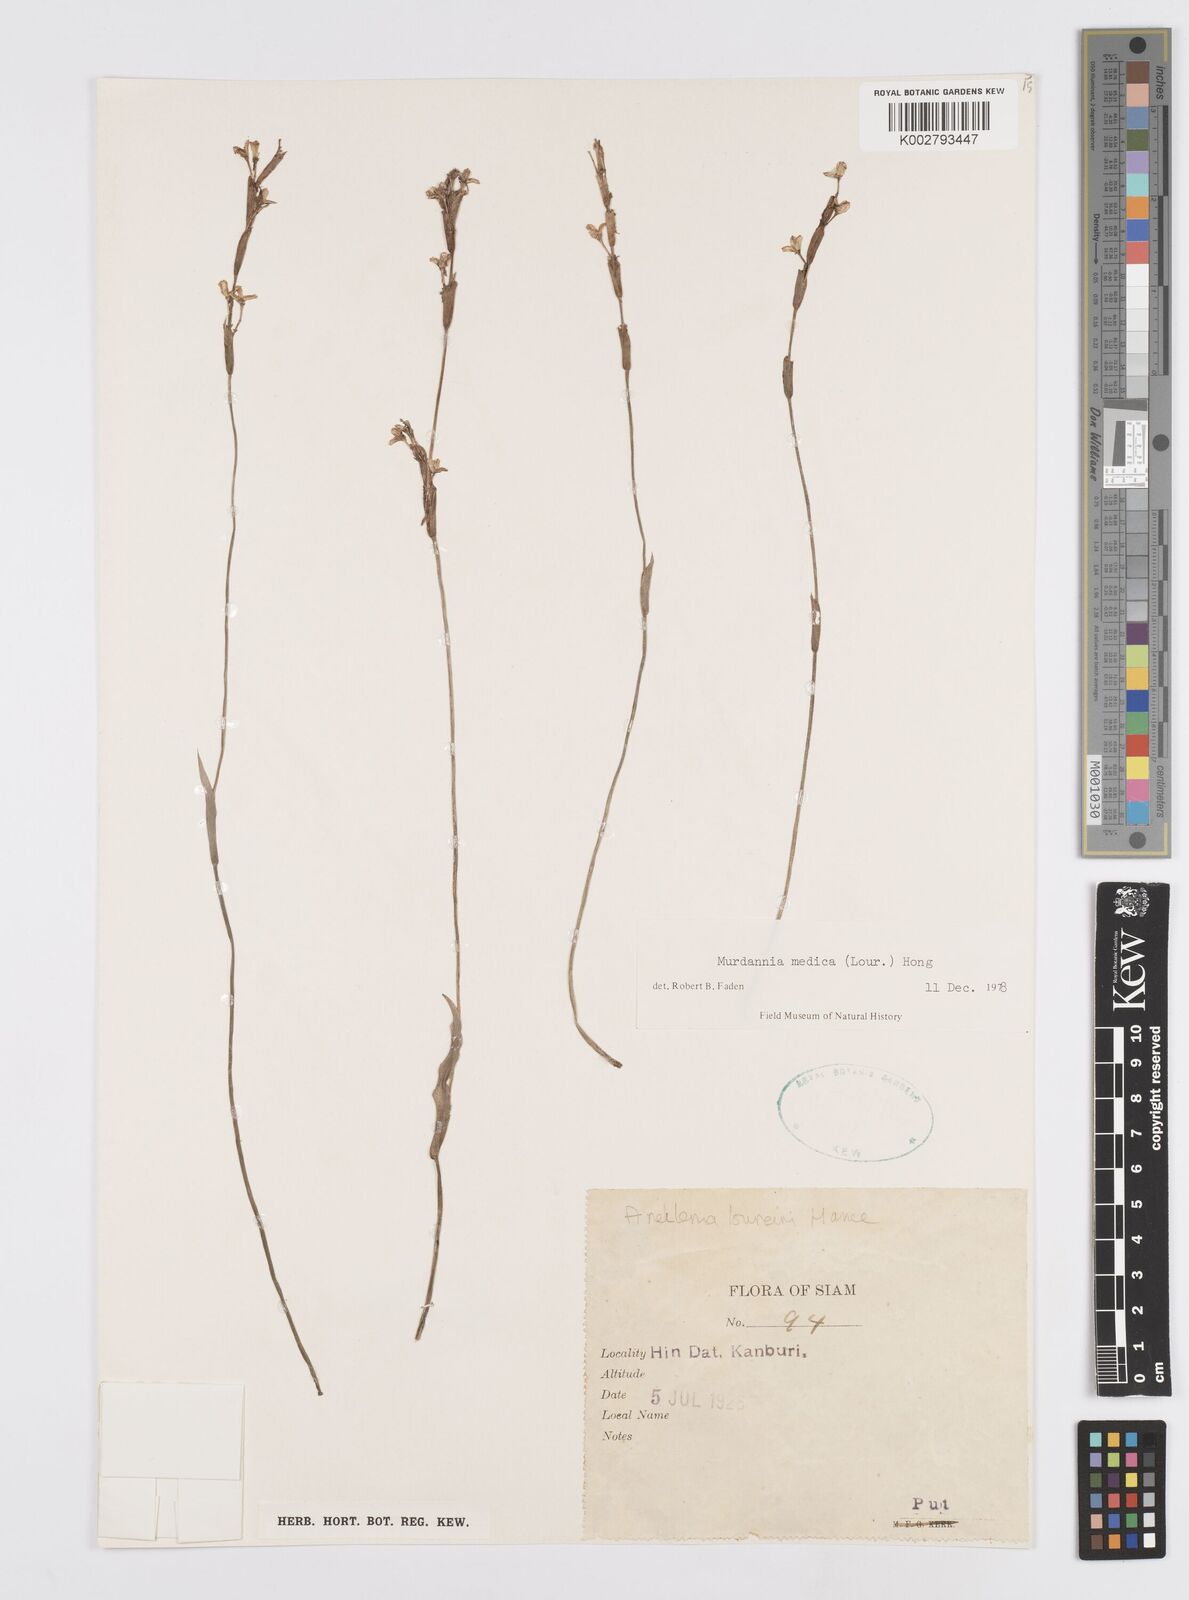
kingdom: Plantae
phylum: Tracheophyta
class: Liliopsida
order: Commelinales
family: Commelinaceae
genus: Murdannia
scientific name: Murdannia medica
